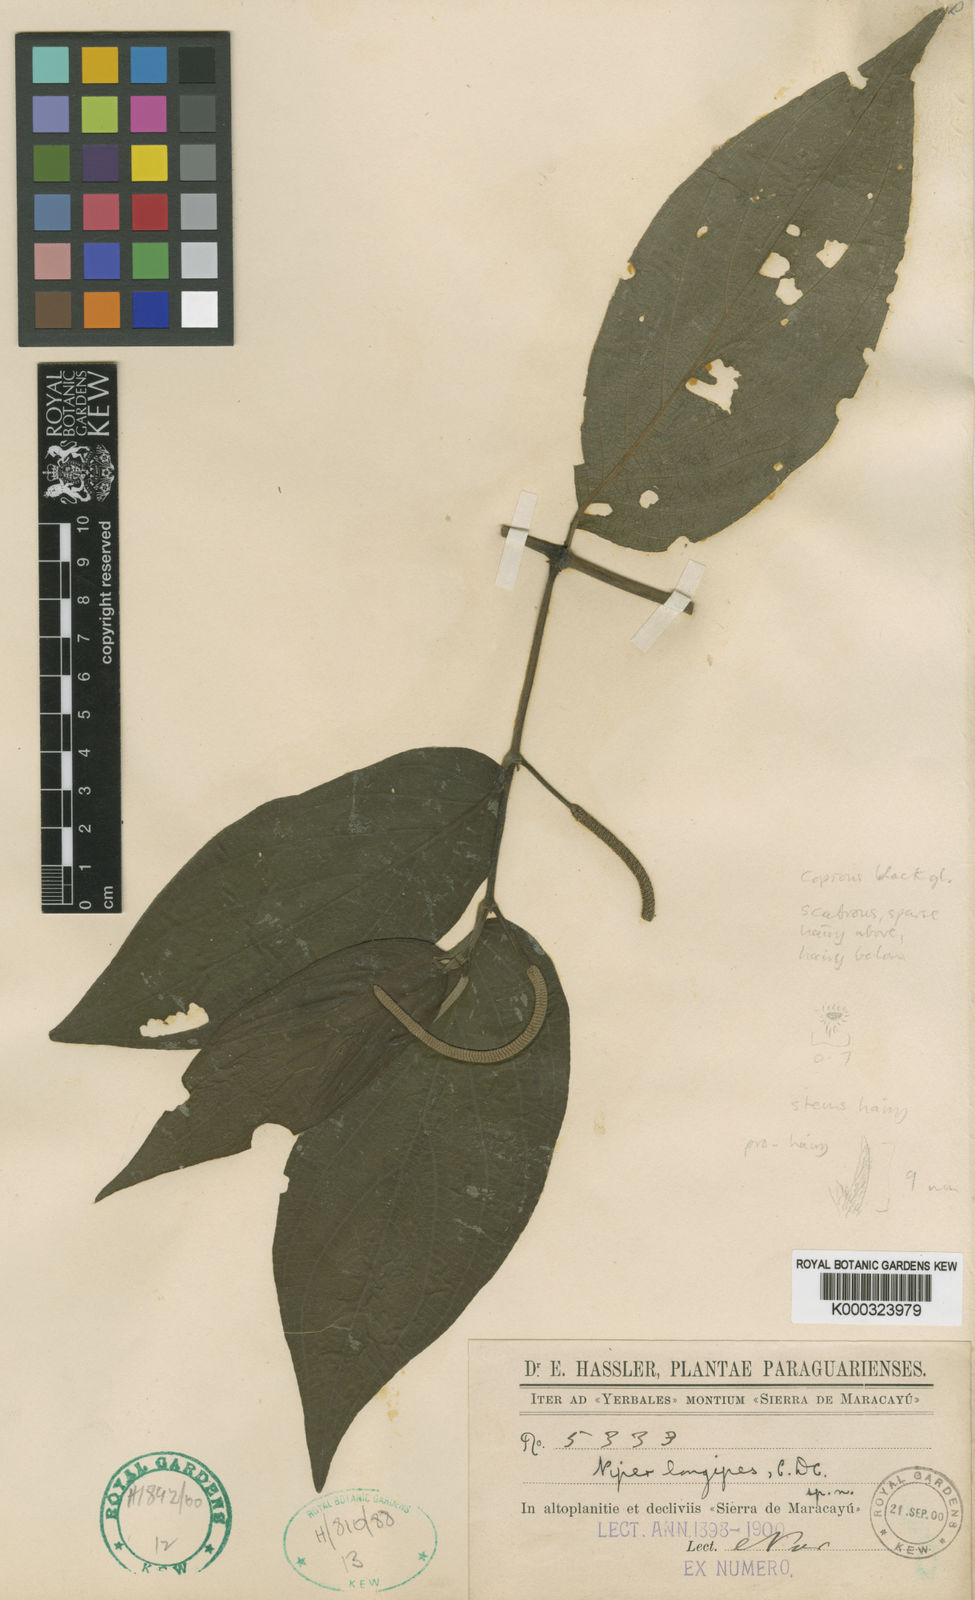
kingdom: Plantae
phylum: Tracheophyta
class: Magnoliopsida
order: Piperales
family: Piperaceae
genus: Piper
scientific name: Piper longipes
